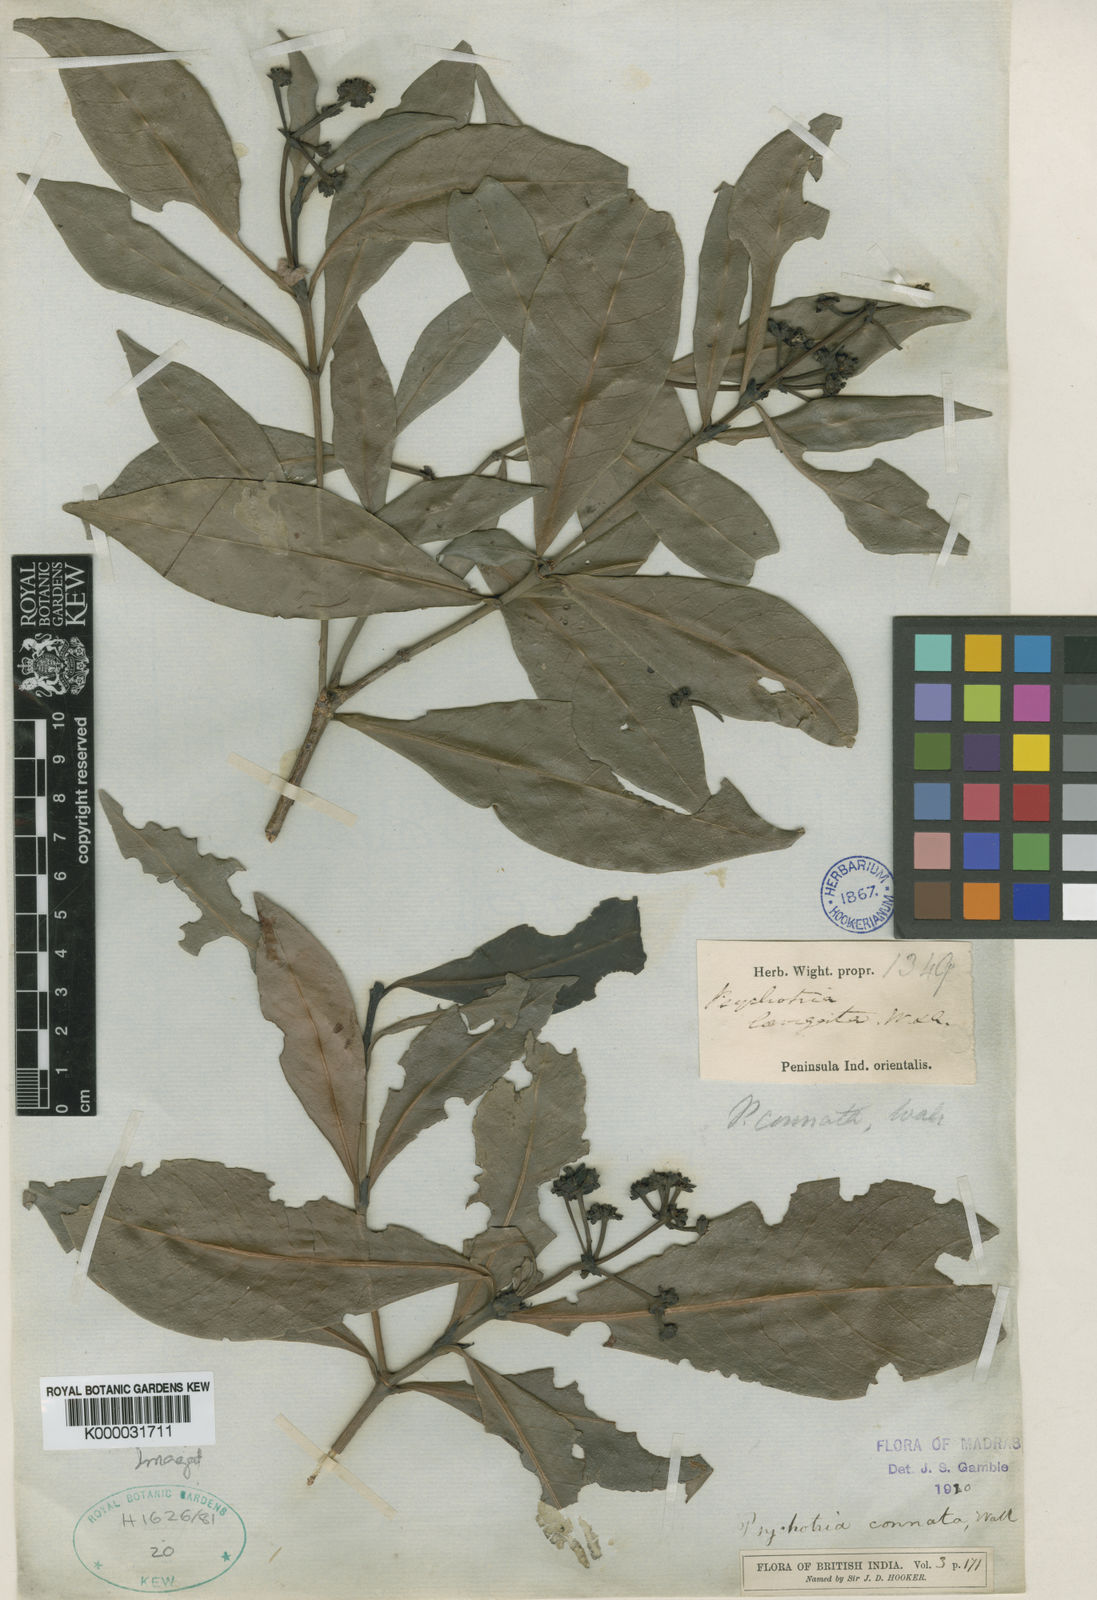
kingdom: Plantae
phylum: Tracheophyta
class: Magnoliopsida
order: Gentianales
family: Rubiaceae
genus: Psychotria
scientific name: Psychotria connata
